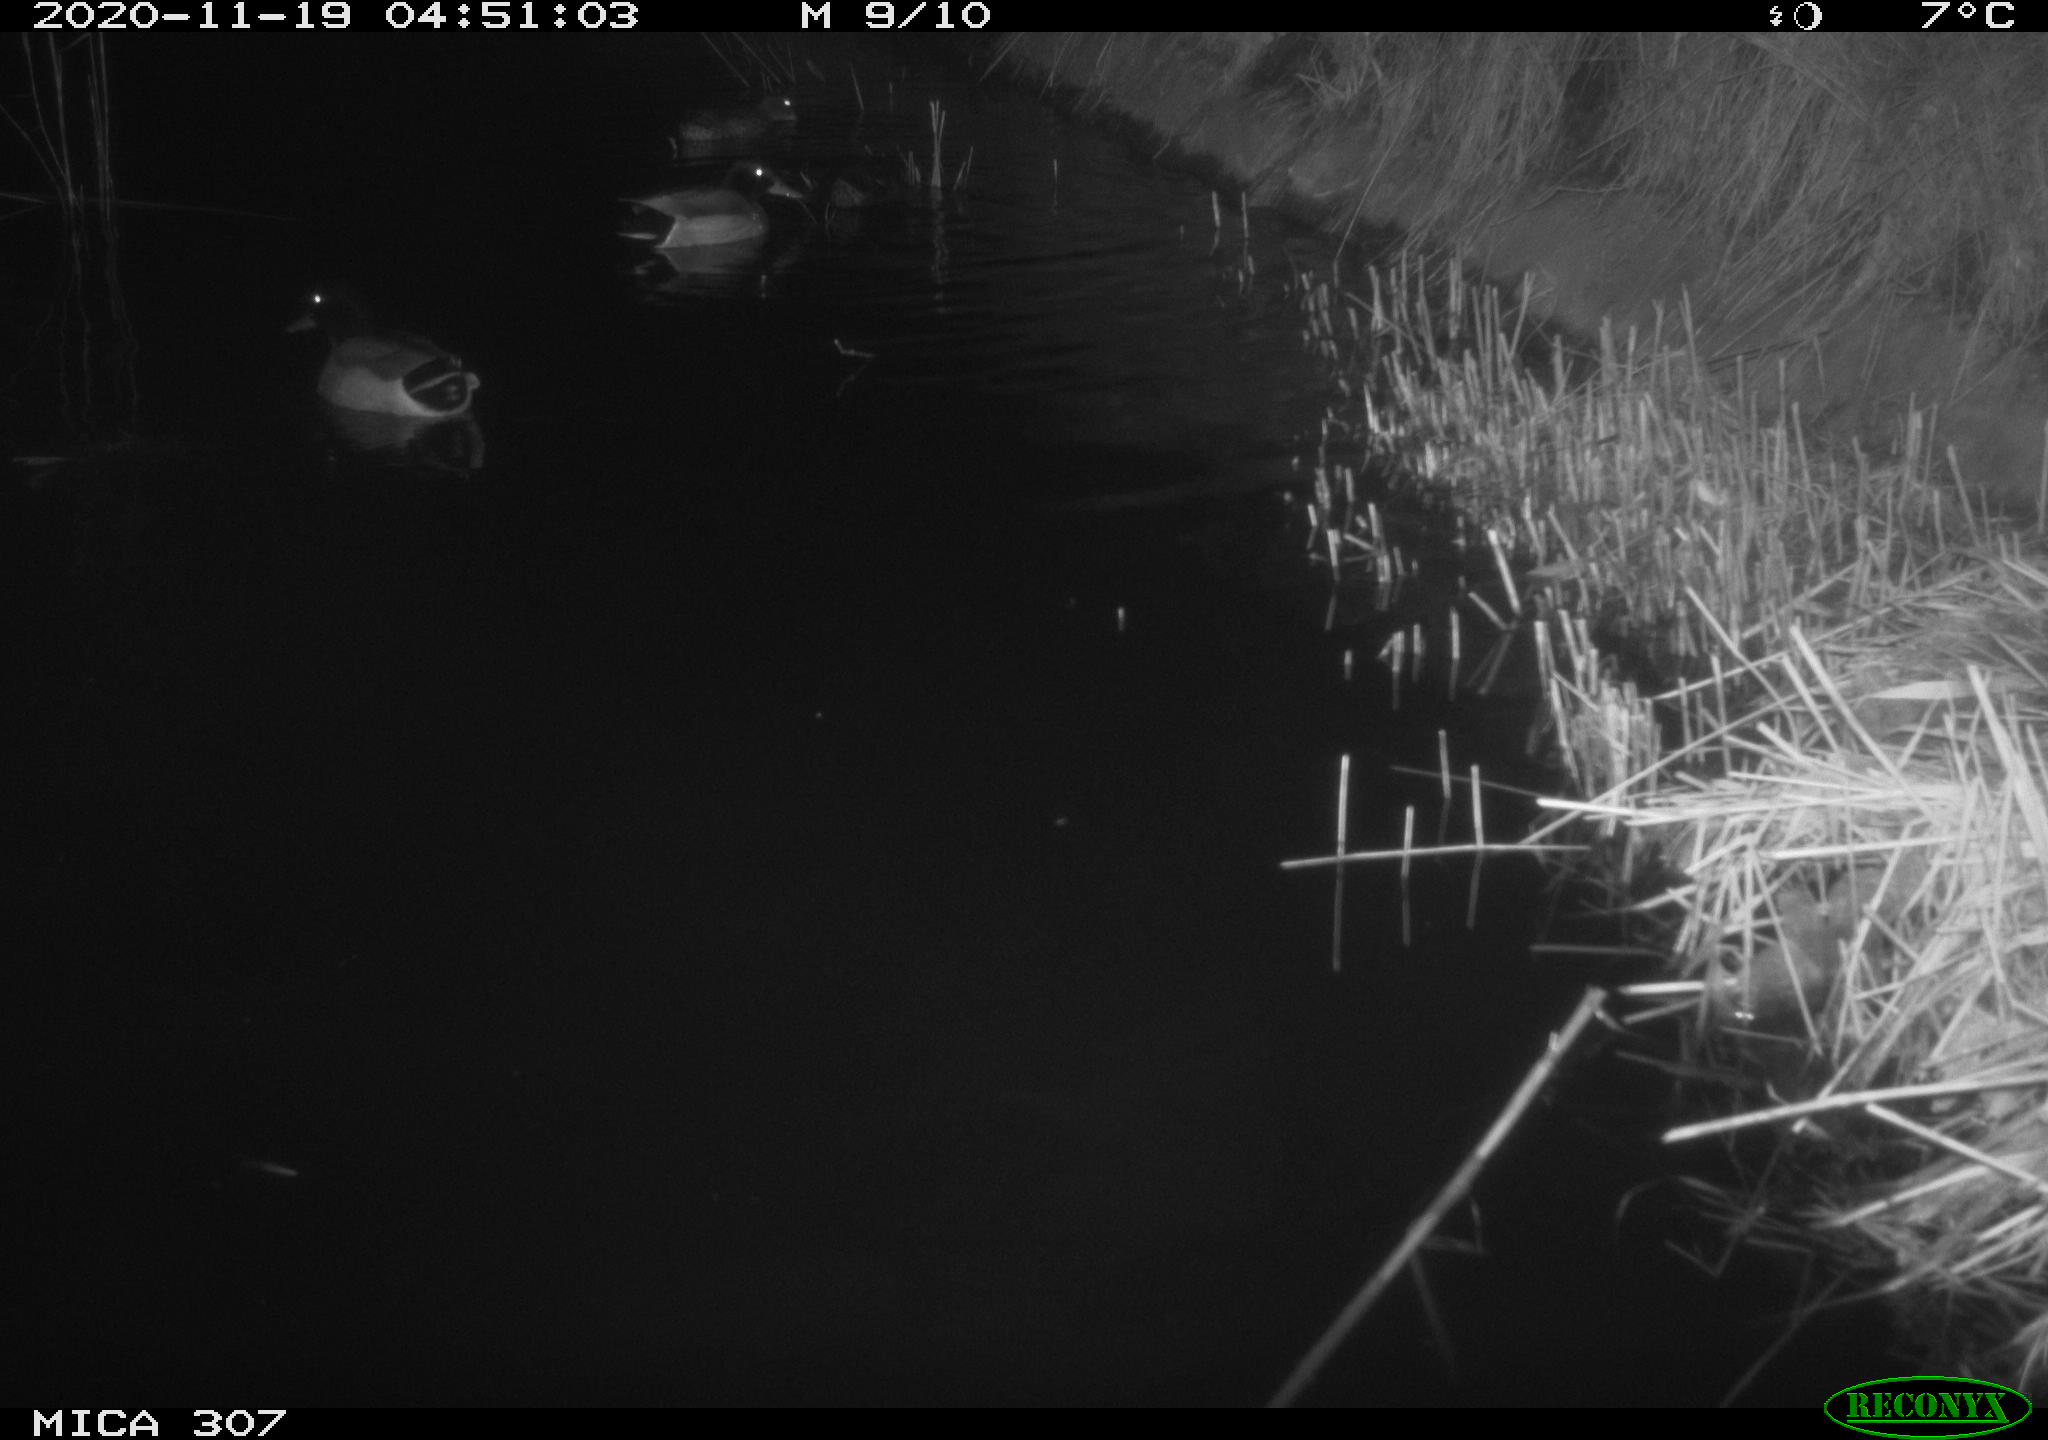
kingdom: Animalia
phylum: Chordata
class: Aves
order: Anseriformes
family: Anatidae
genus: Anas
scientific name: Anas platyrhynchos
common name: Mallard
